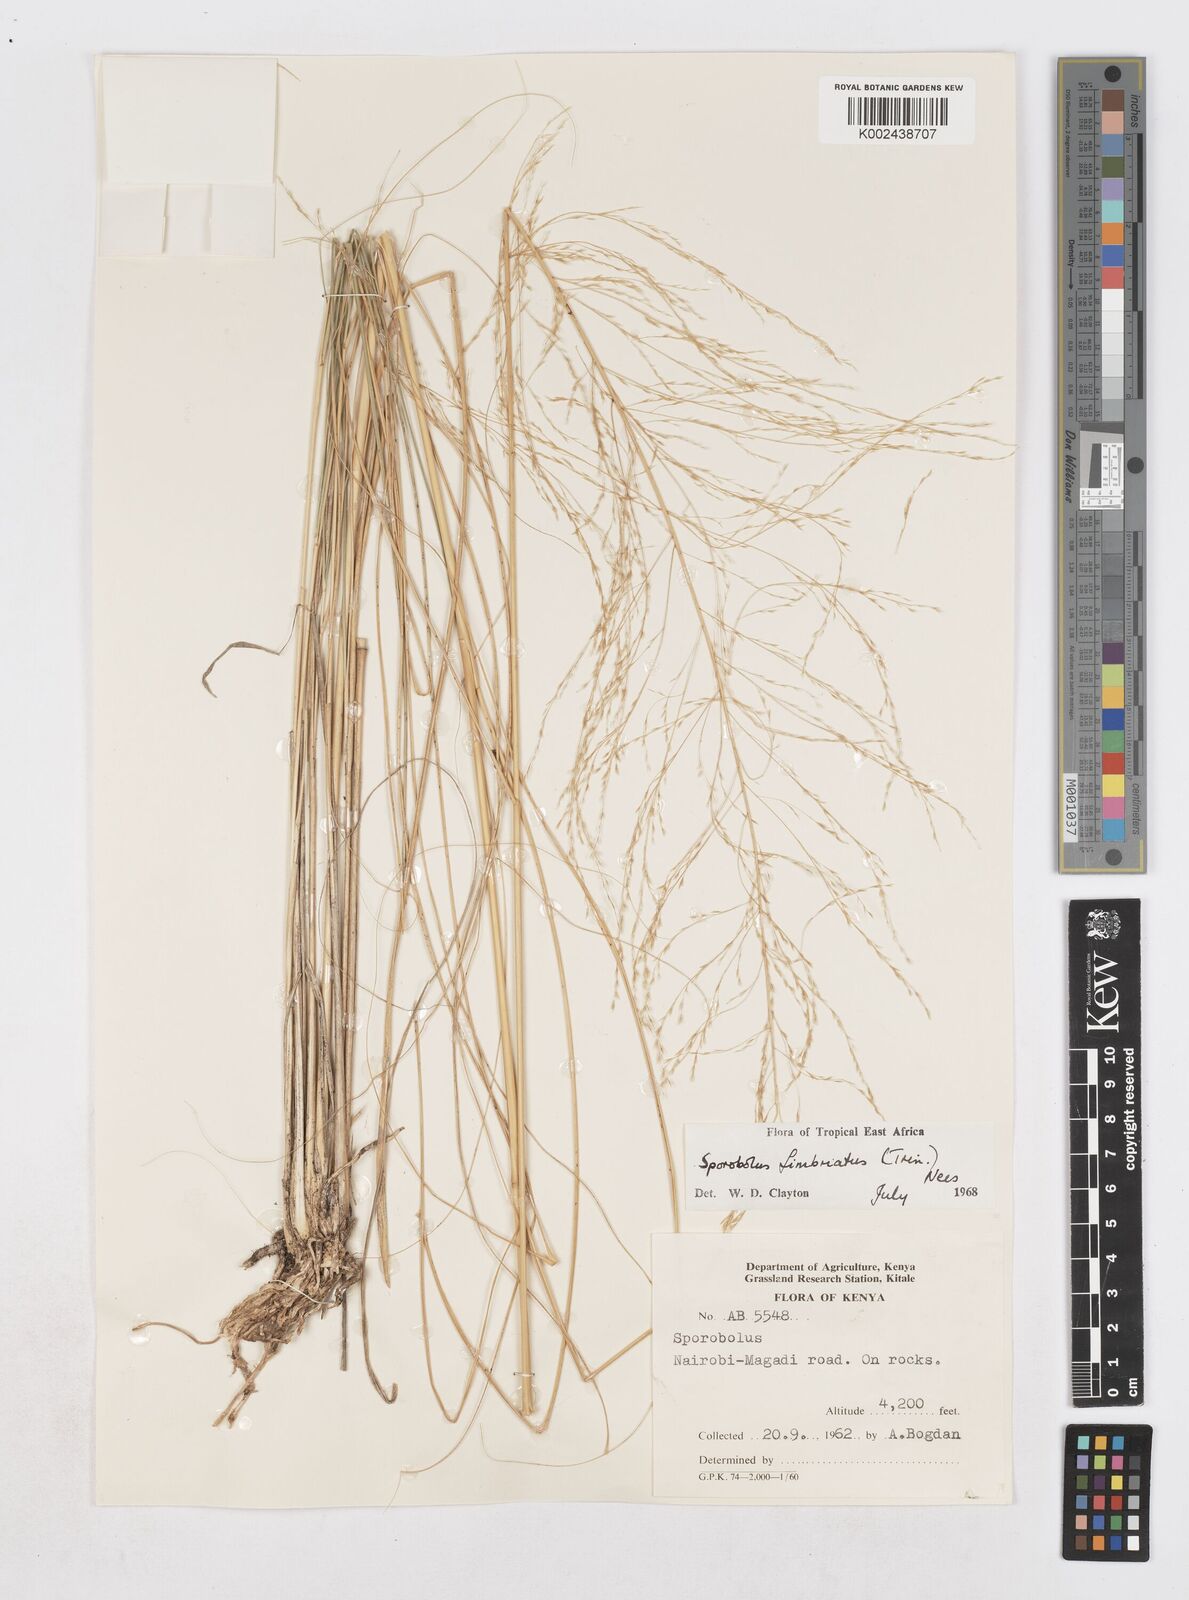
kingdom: Plantae
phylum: Tracheophyta
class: Liliopsida
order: Poales
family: Poaceae
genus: Sporobolus
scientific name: Sporobolus fimbriatus
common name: Fringed dropseed
